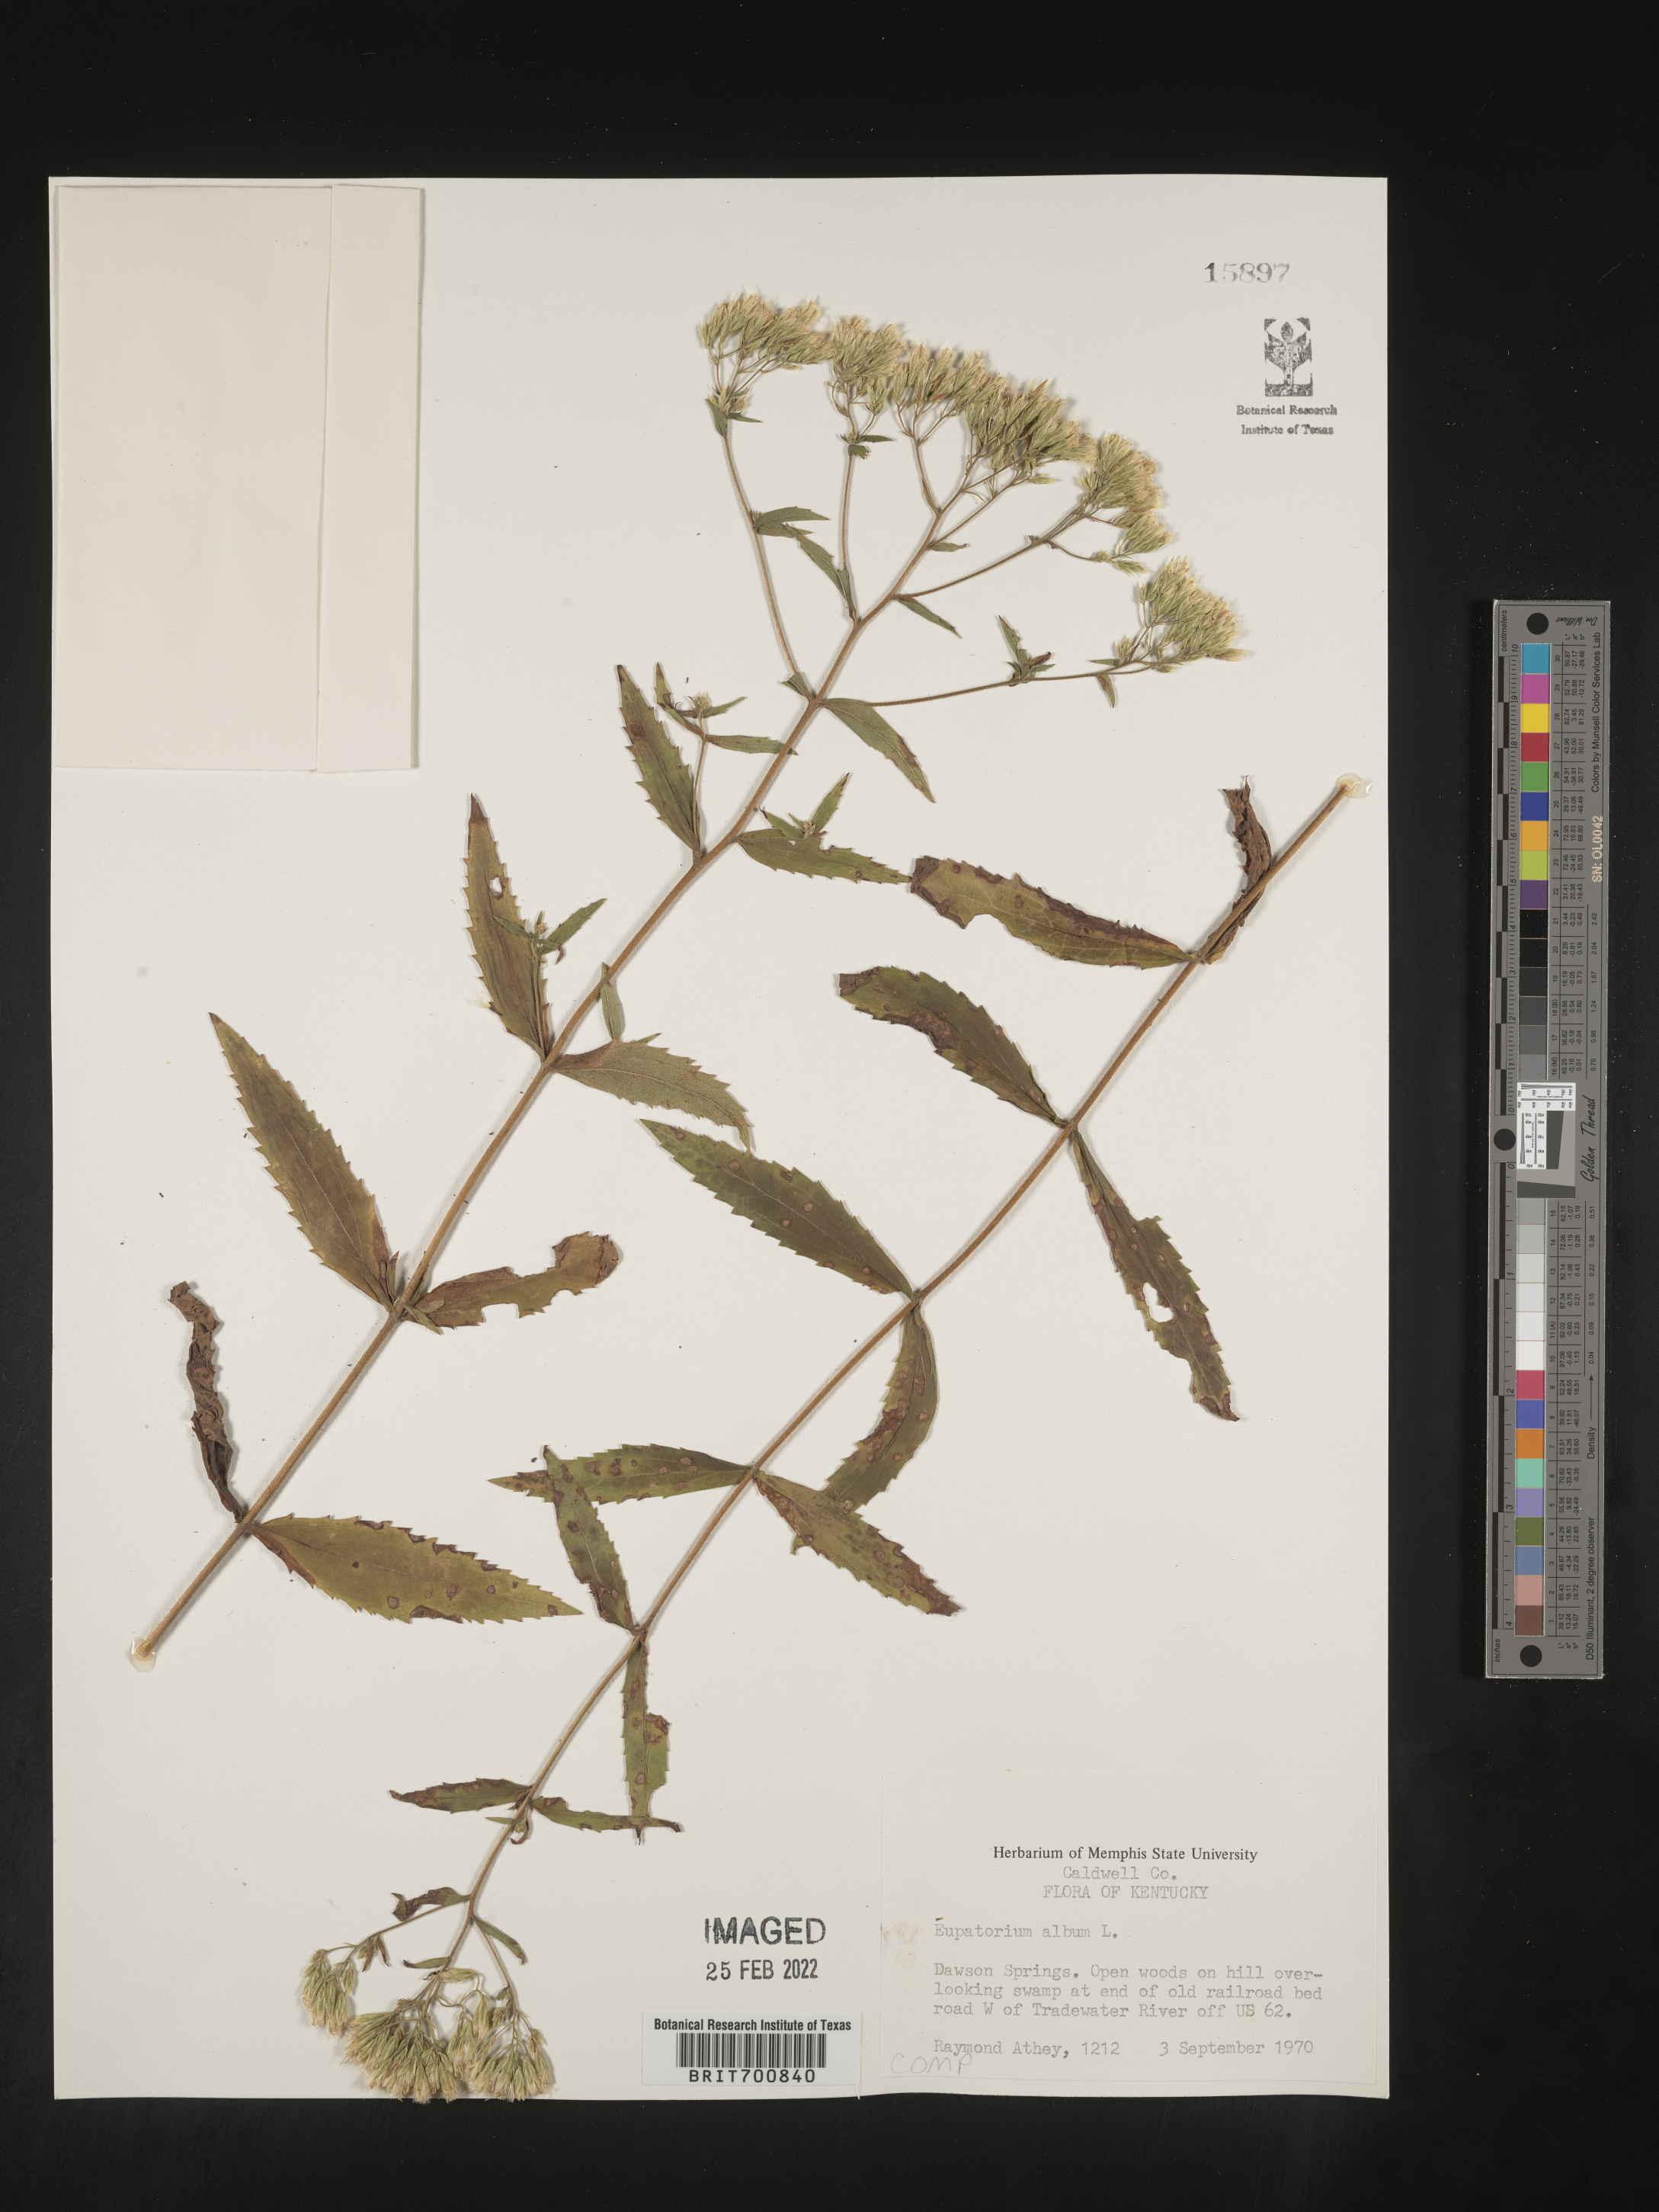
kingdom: Plantae
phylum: Tracheophyta
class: Magnoliopsida
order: Asterales
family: Asteraceae
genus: Eupatorium
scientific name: Eupatorium album
